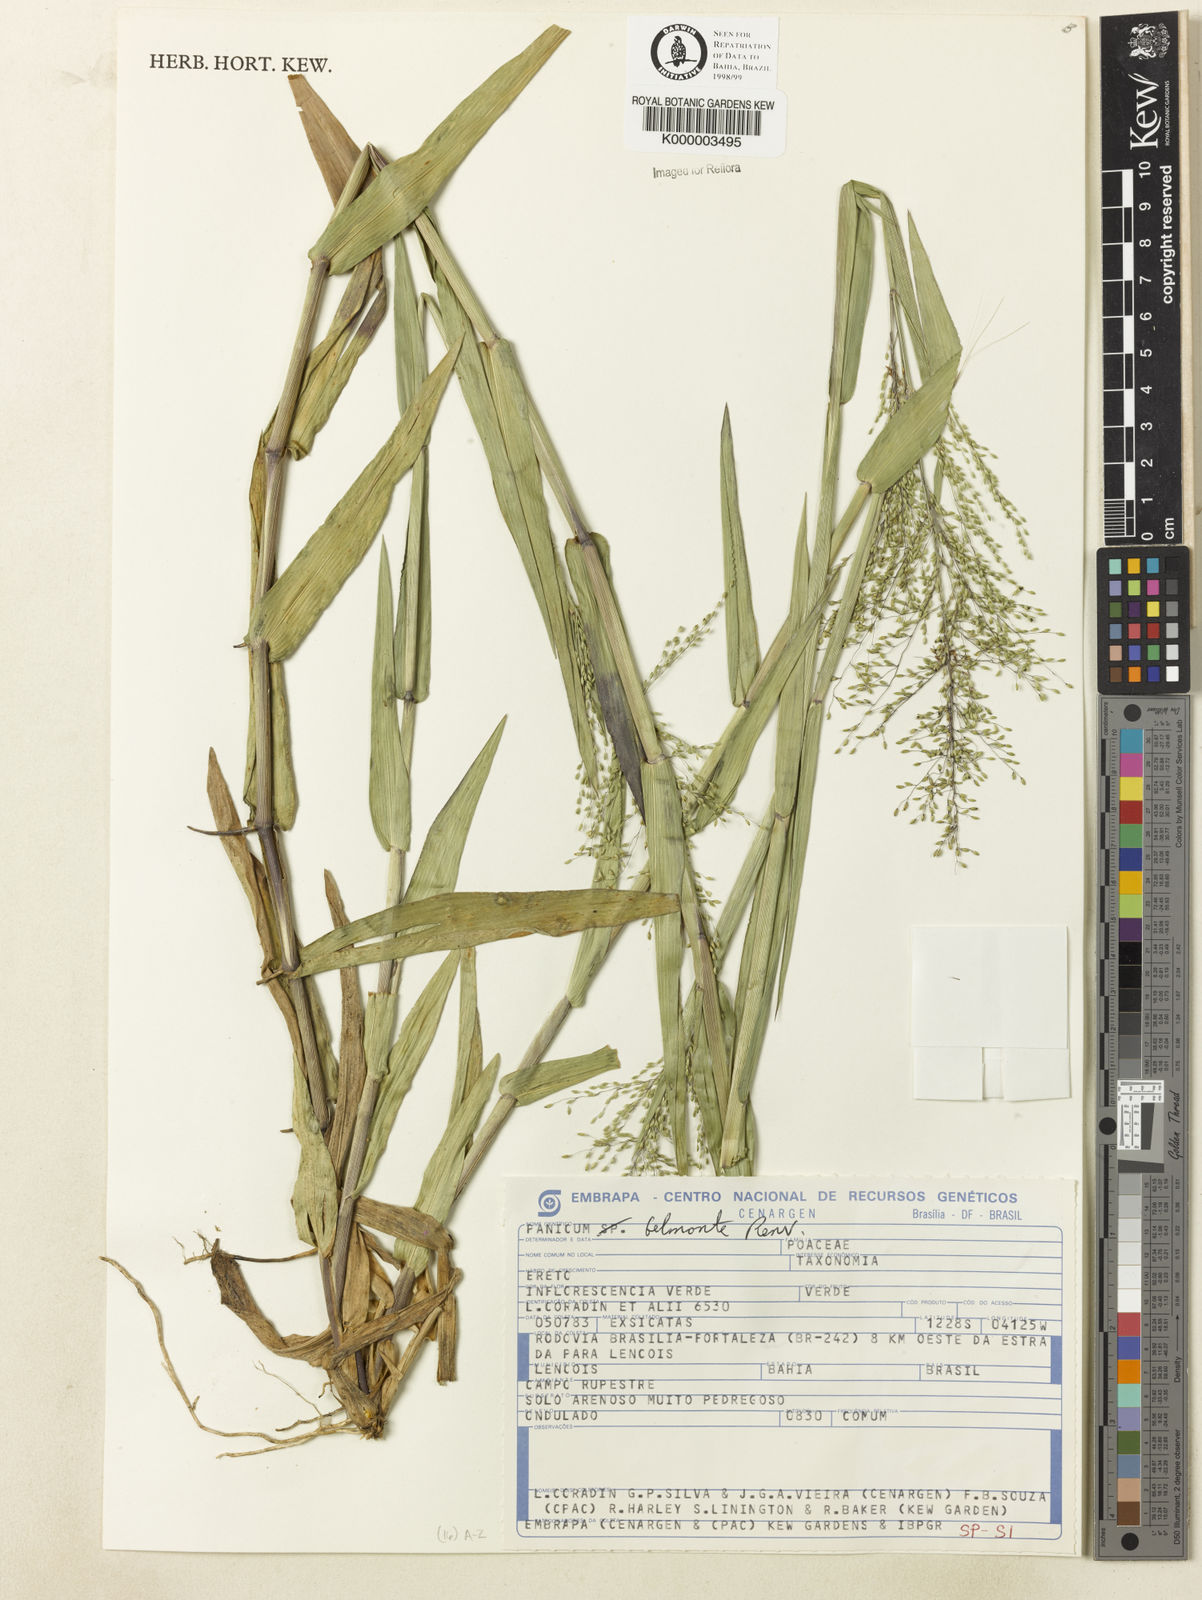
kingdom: Plantae
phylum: Tracheophyta
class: Liliopsida
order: Poales
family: Poaceae
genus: Dichanthelium
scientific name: Dichanthelium aequivaginatum
